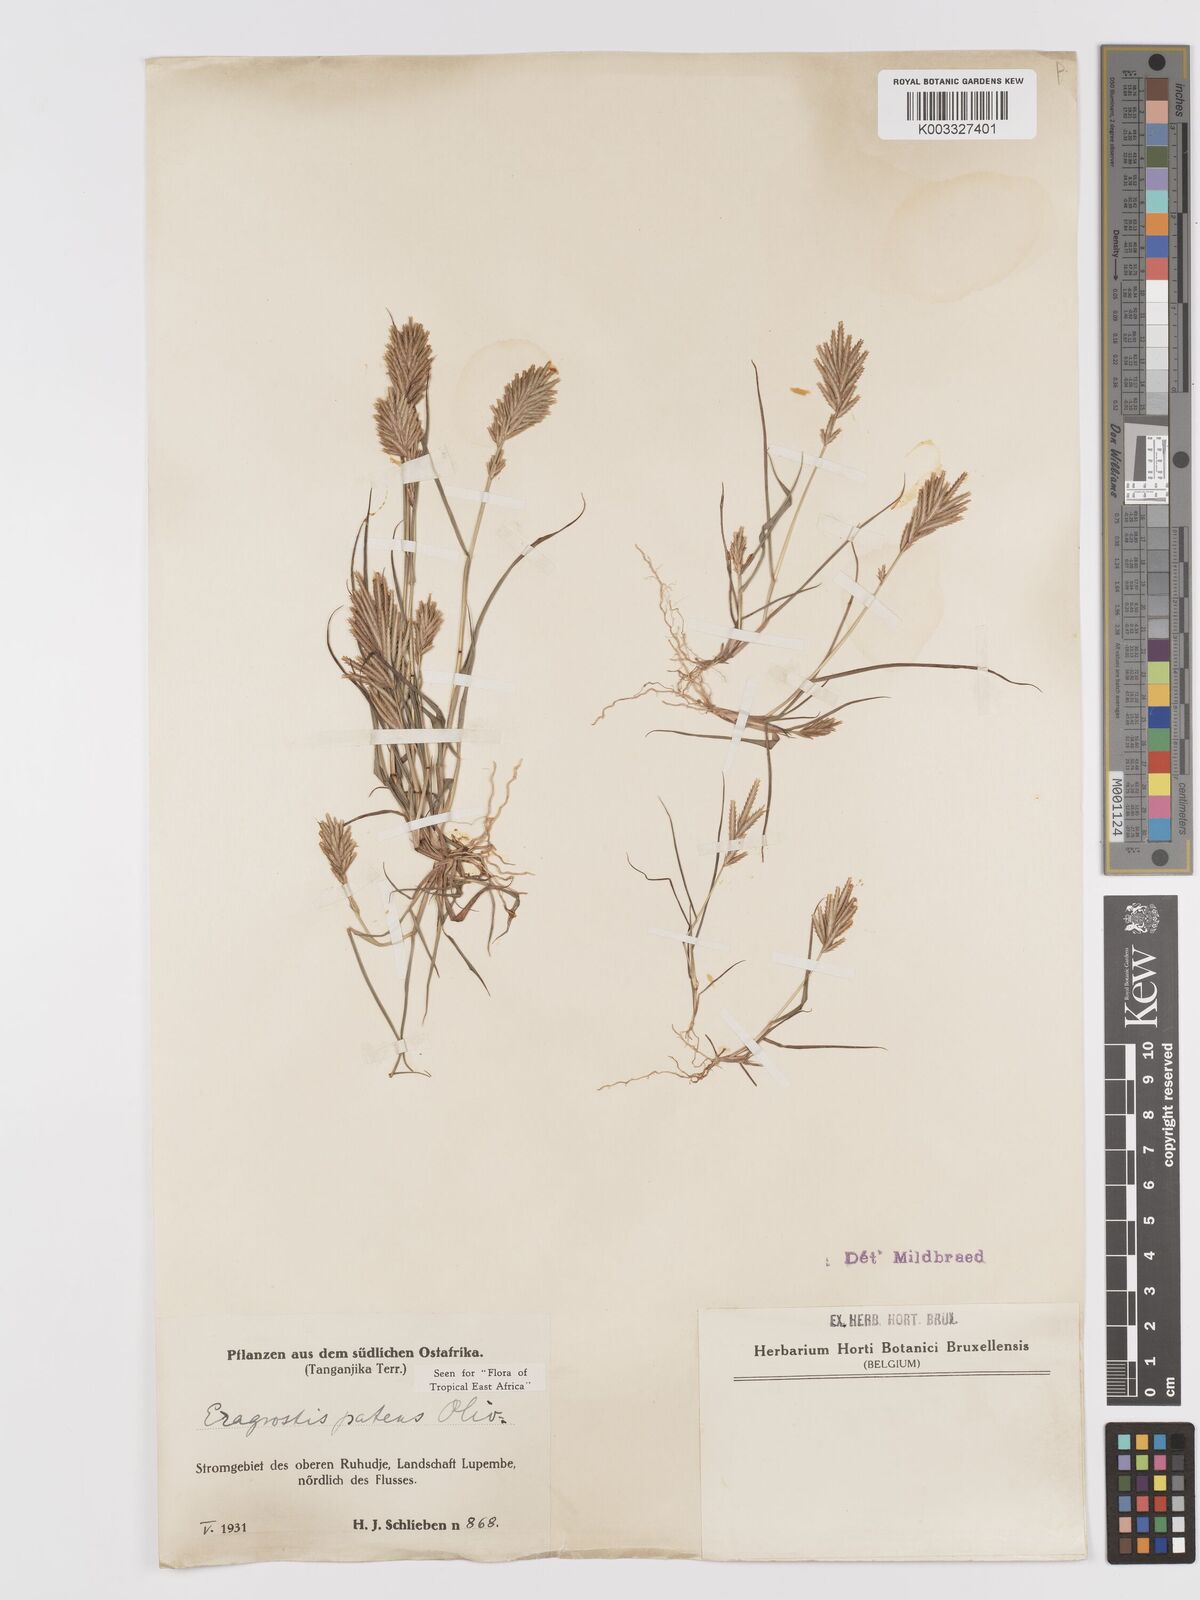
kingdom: Plantae
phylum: Tracheophyta
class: Liliopsida
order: Poales
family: Poaceae
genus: Eragrostis
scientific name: Eragrostis patens
